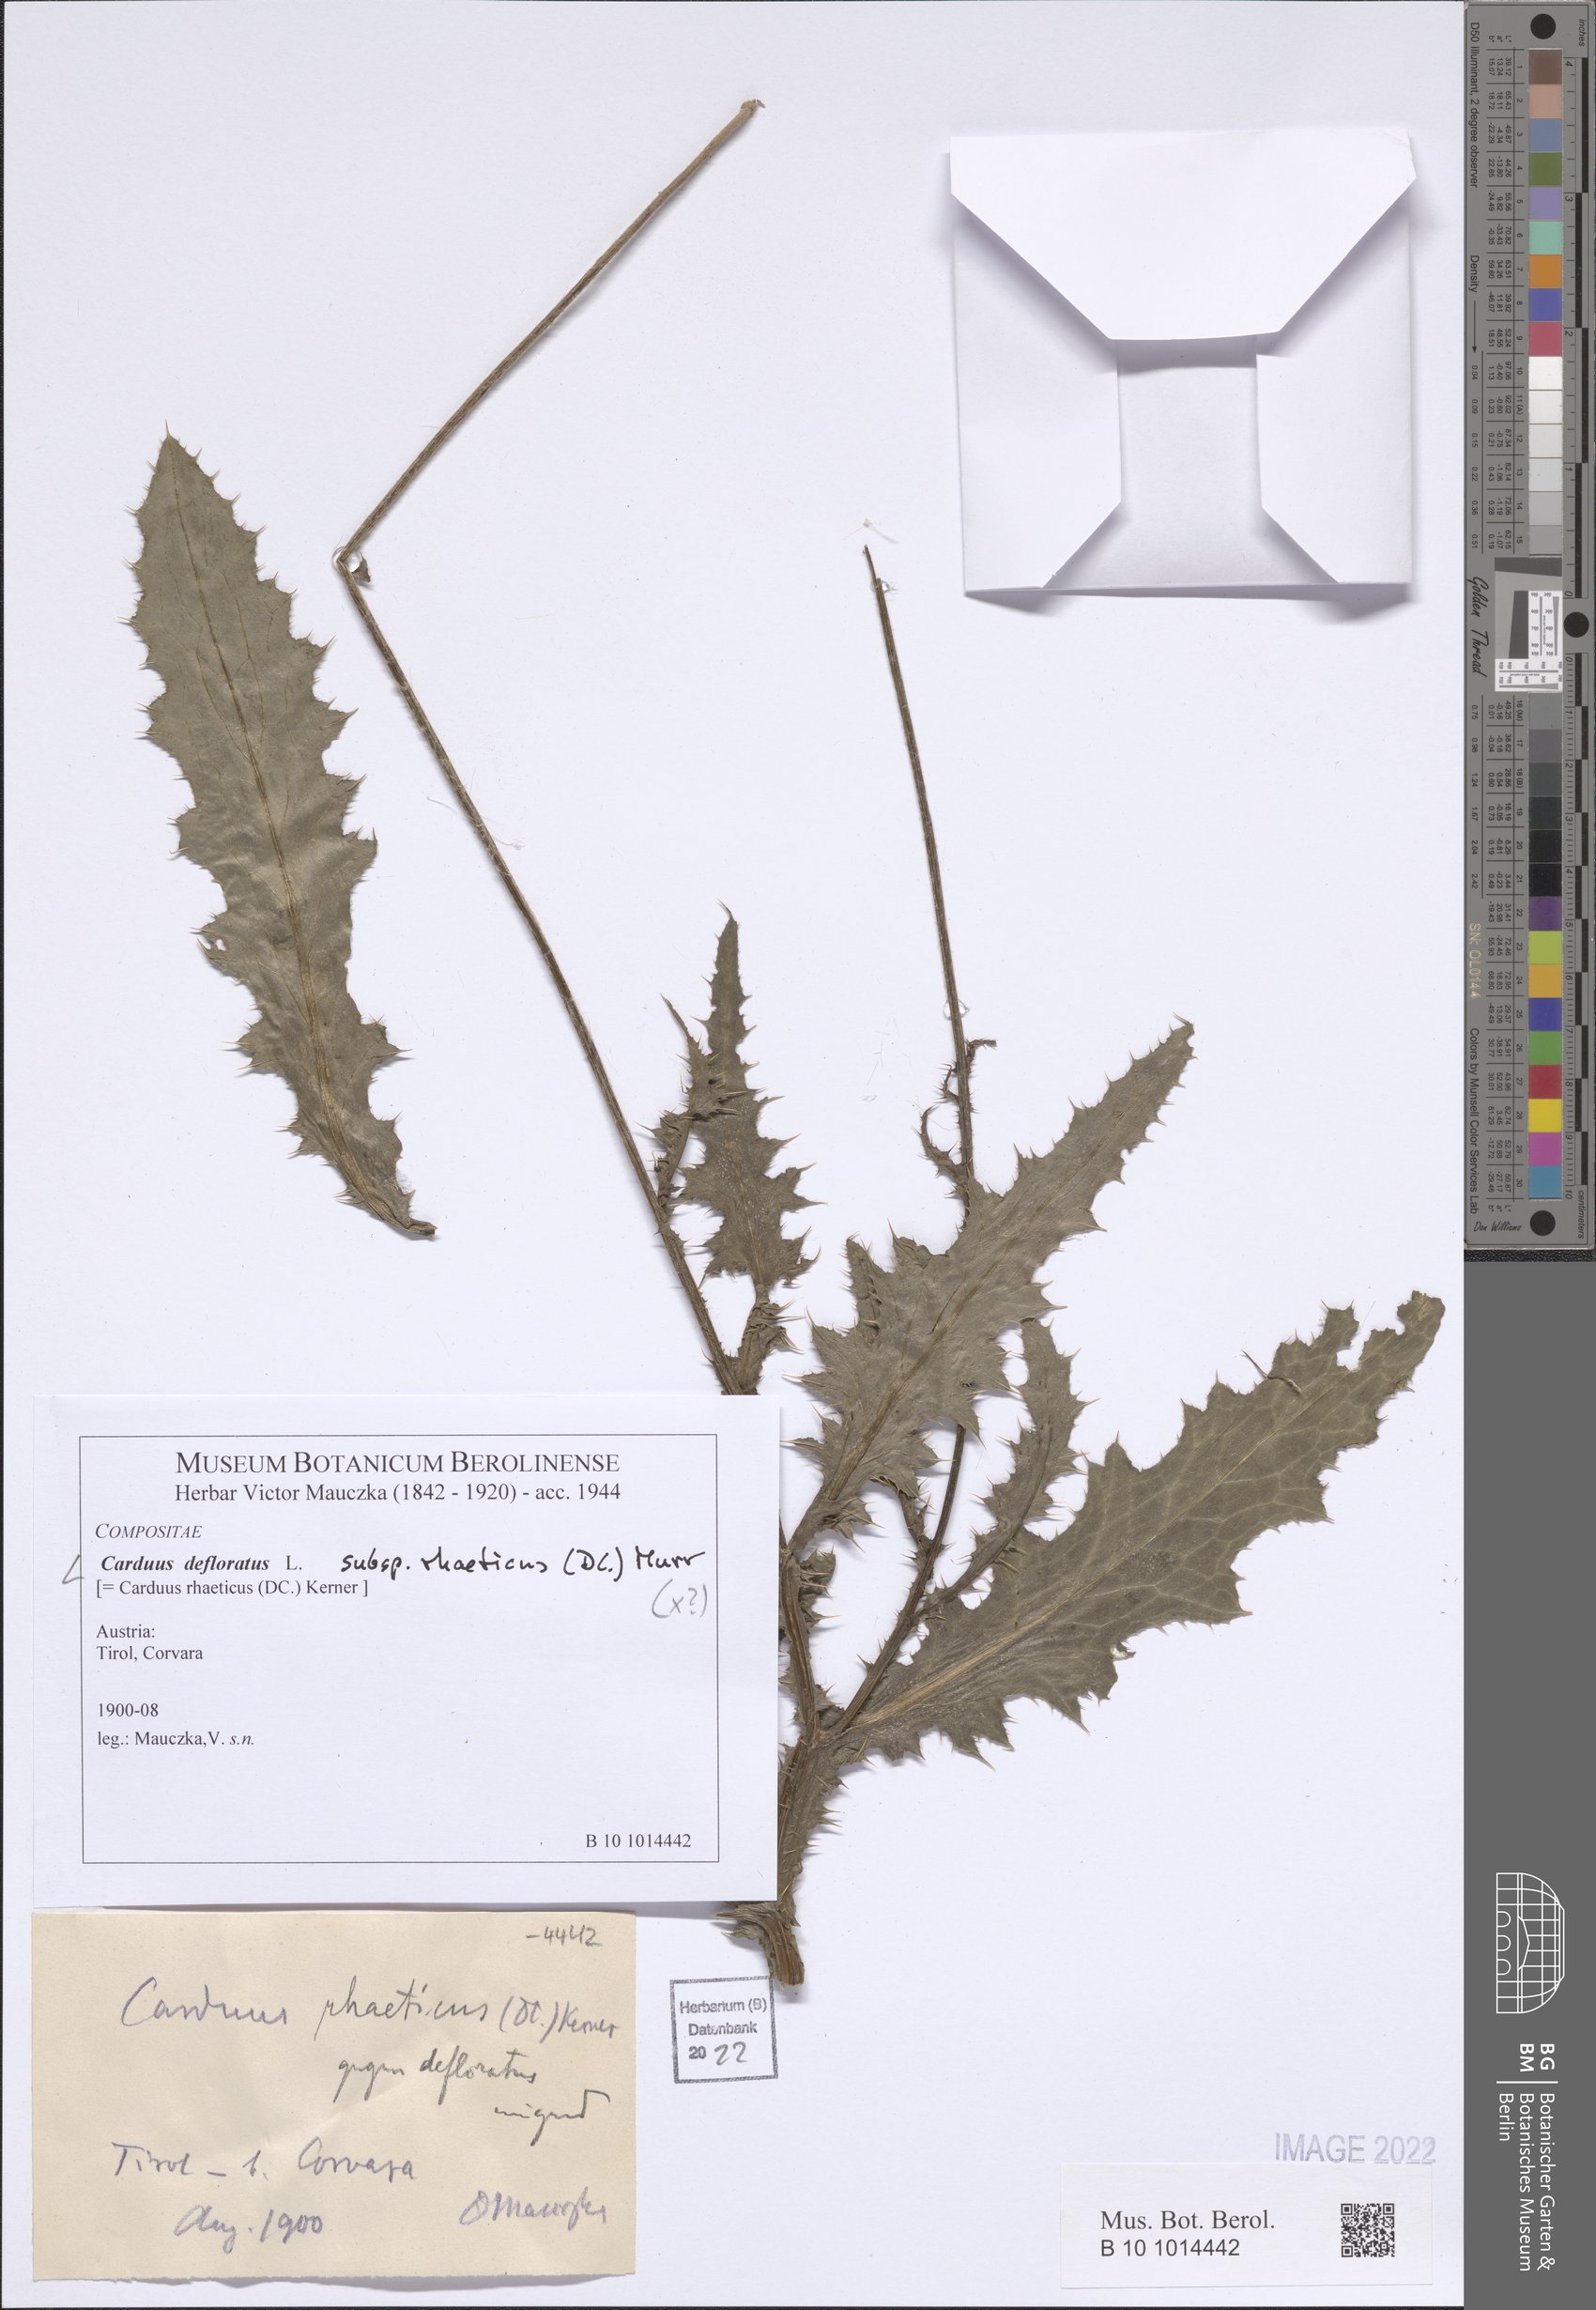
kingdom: Plantae
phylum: Tracheophyta
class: Magnoliopsida
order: Asterales
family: Asteraceae
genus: Carduus
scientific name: Carduus defloratus
